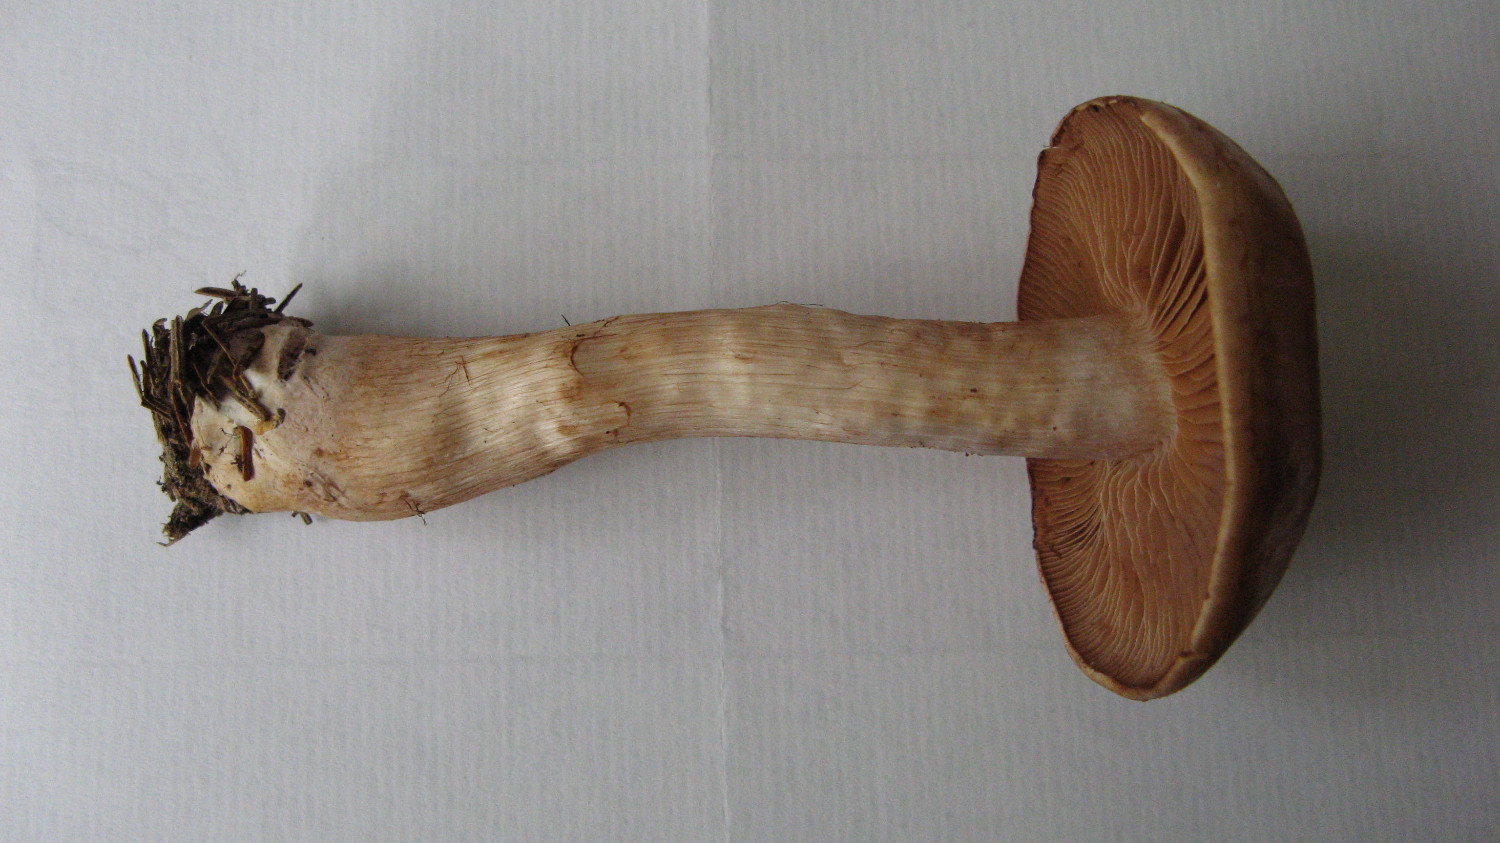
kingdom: Fungi
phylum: Basidiomycota
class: Agaricomycetes
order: Agaricales
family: Cortinariaceae
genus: Cortinarius
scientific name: Cortinarius caninus
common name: gran-slørhat
